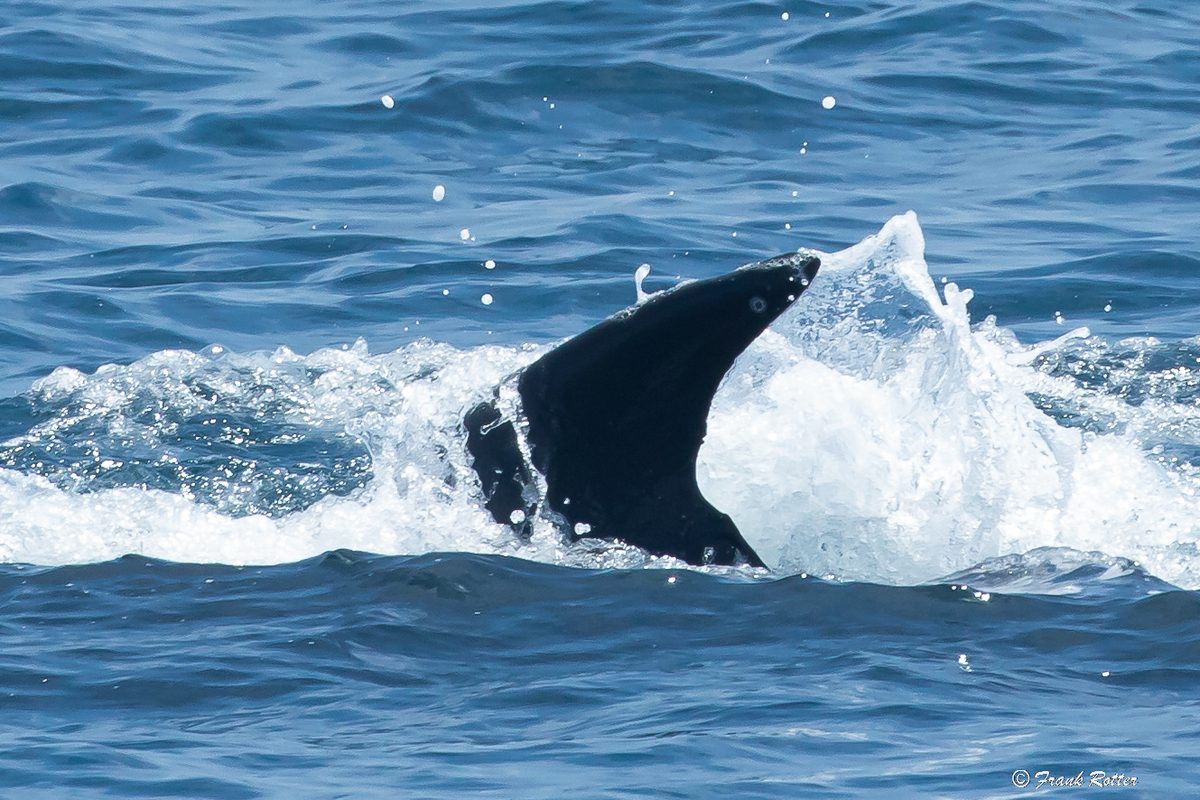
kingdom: Animalia
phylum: Chordata
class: Mammalia
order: Cetacea
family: Balaenopteridae
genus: Balaenoptera
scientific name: Balaenoptera edeni
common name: Bryde's whale
